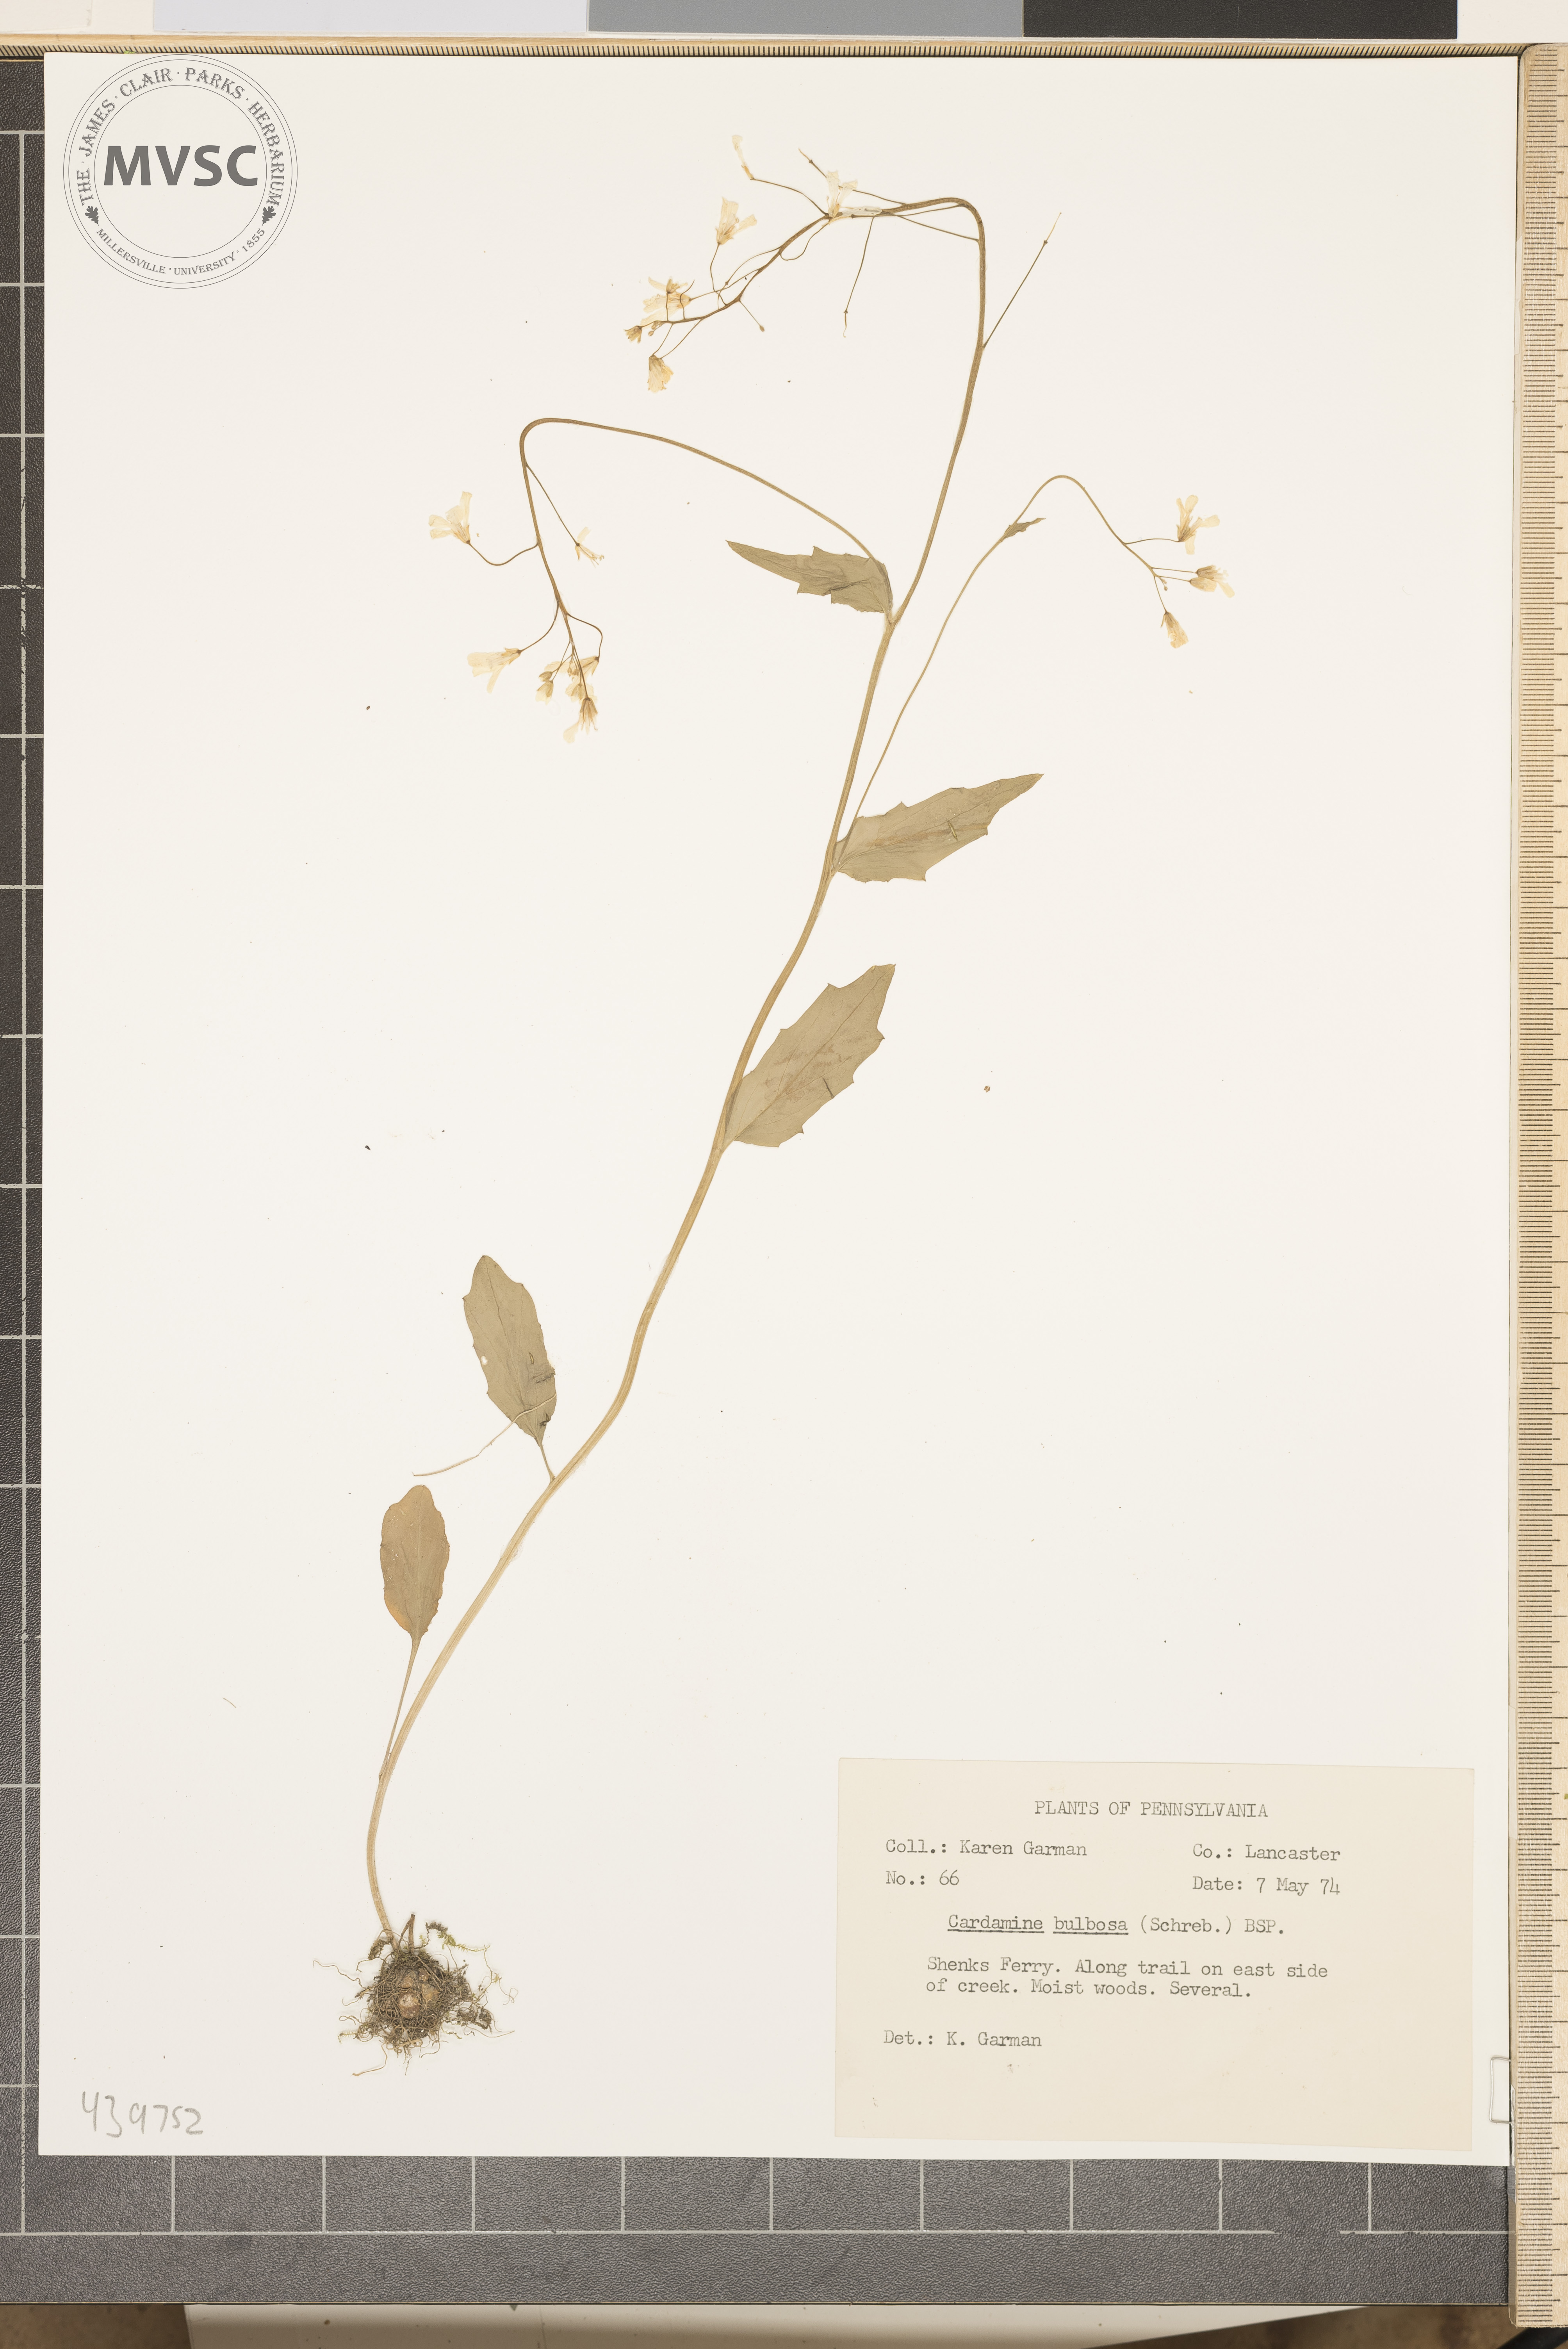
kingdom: Plantae
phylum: Tracheophyta
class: Magnoliopsida
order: Brassicales
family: Brassicaceae
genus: Cardamine
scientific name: Cardamine bulbosa
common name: Spring cress
